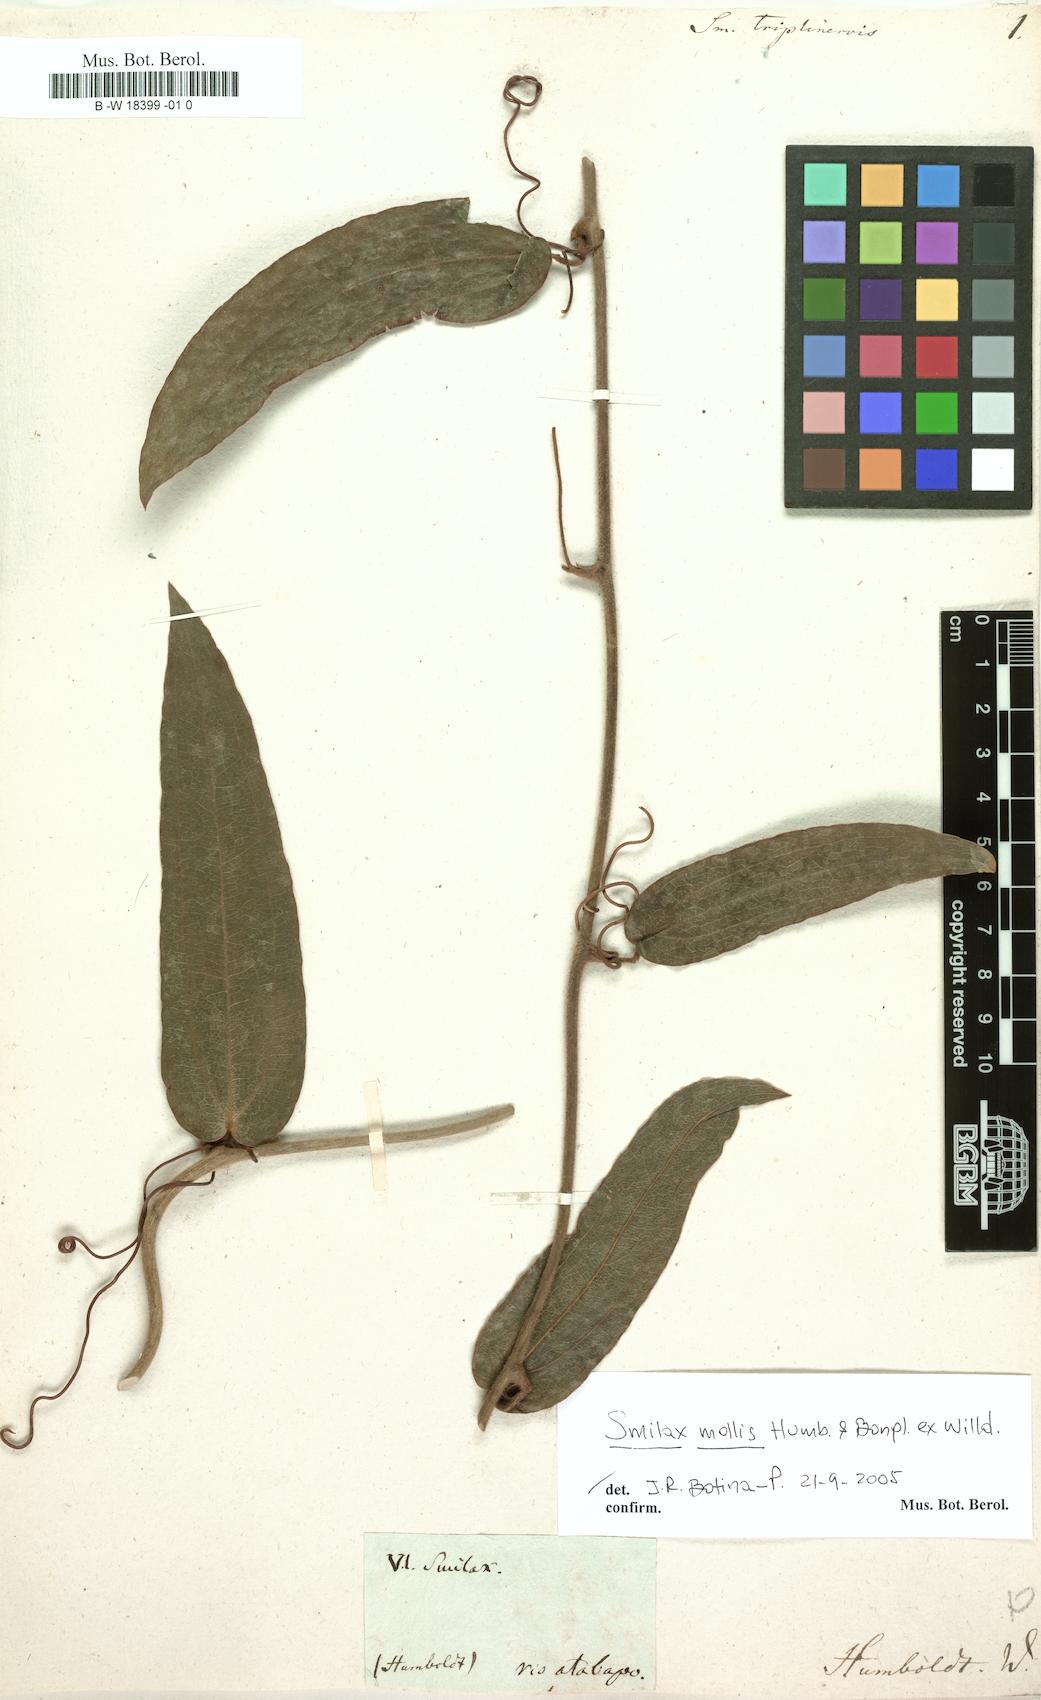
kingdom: Plantae
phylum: Tracheophyta
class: Liliopsida
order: Liliales
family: Smilacaceae
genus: Smilax
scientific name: Smilax triplinervia
